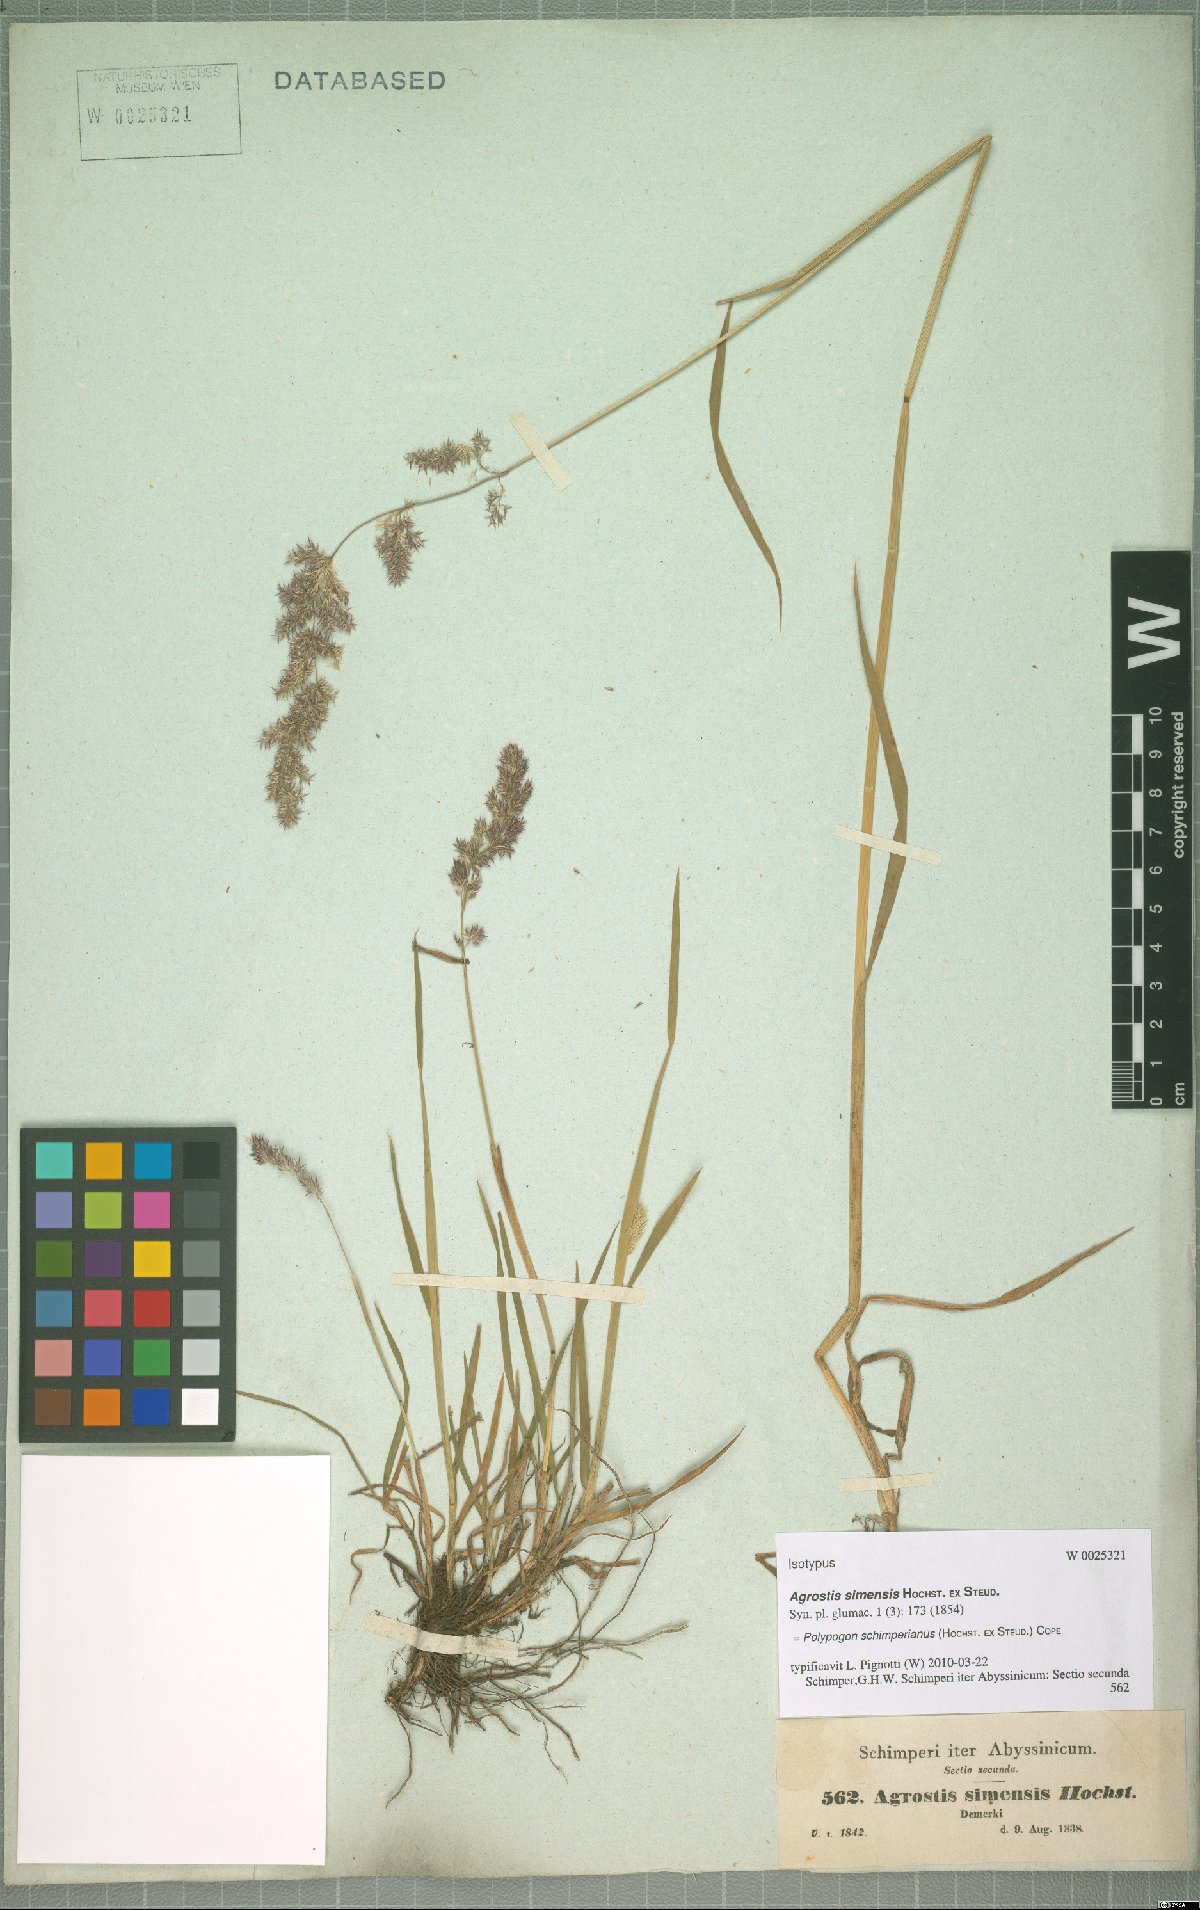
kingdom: Plantae
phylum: Tracheophyta
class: Liliopsida
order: Poales
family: Poaceae
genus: Polypogon
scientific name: Polypogon schimperianus
